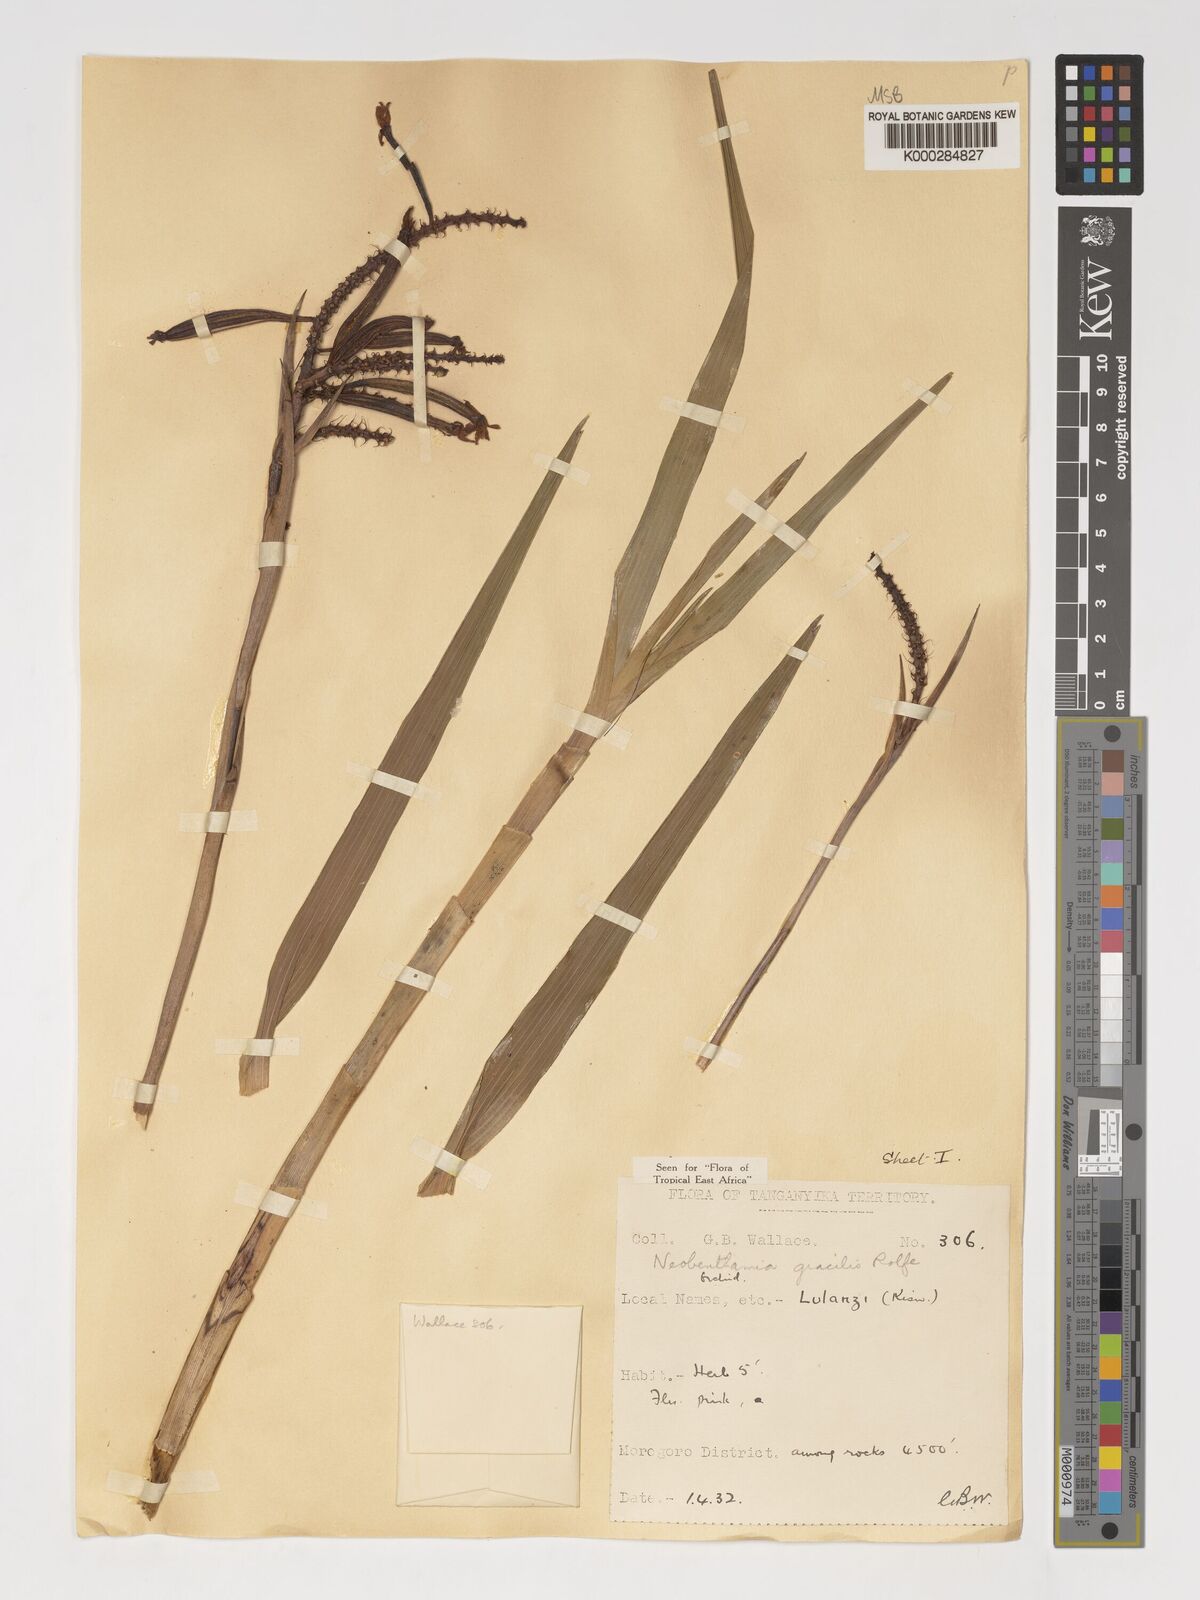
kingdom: Plantae
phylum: Tracheophyta
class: Liliopsida
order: Asparagales
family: Orchidaceae
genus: Polystachya
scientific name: Polystachya neobenthamia
